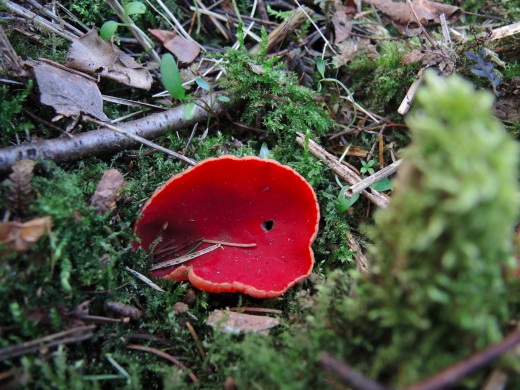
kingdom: Fungi
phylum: Ascomycota
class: Pezizomycetes
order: Pezizales
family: Sarcoscyphaceae
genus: Sarcoscypha
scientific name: Sarcoscypha austriaca
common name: krølhåret pragtbæger
